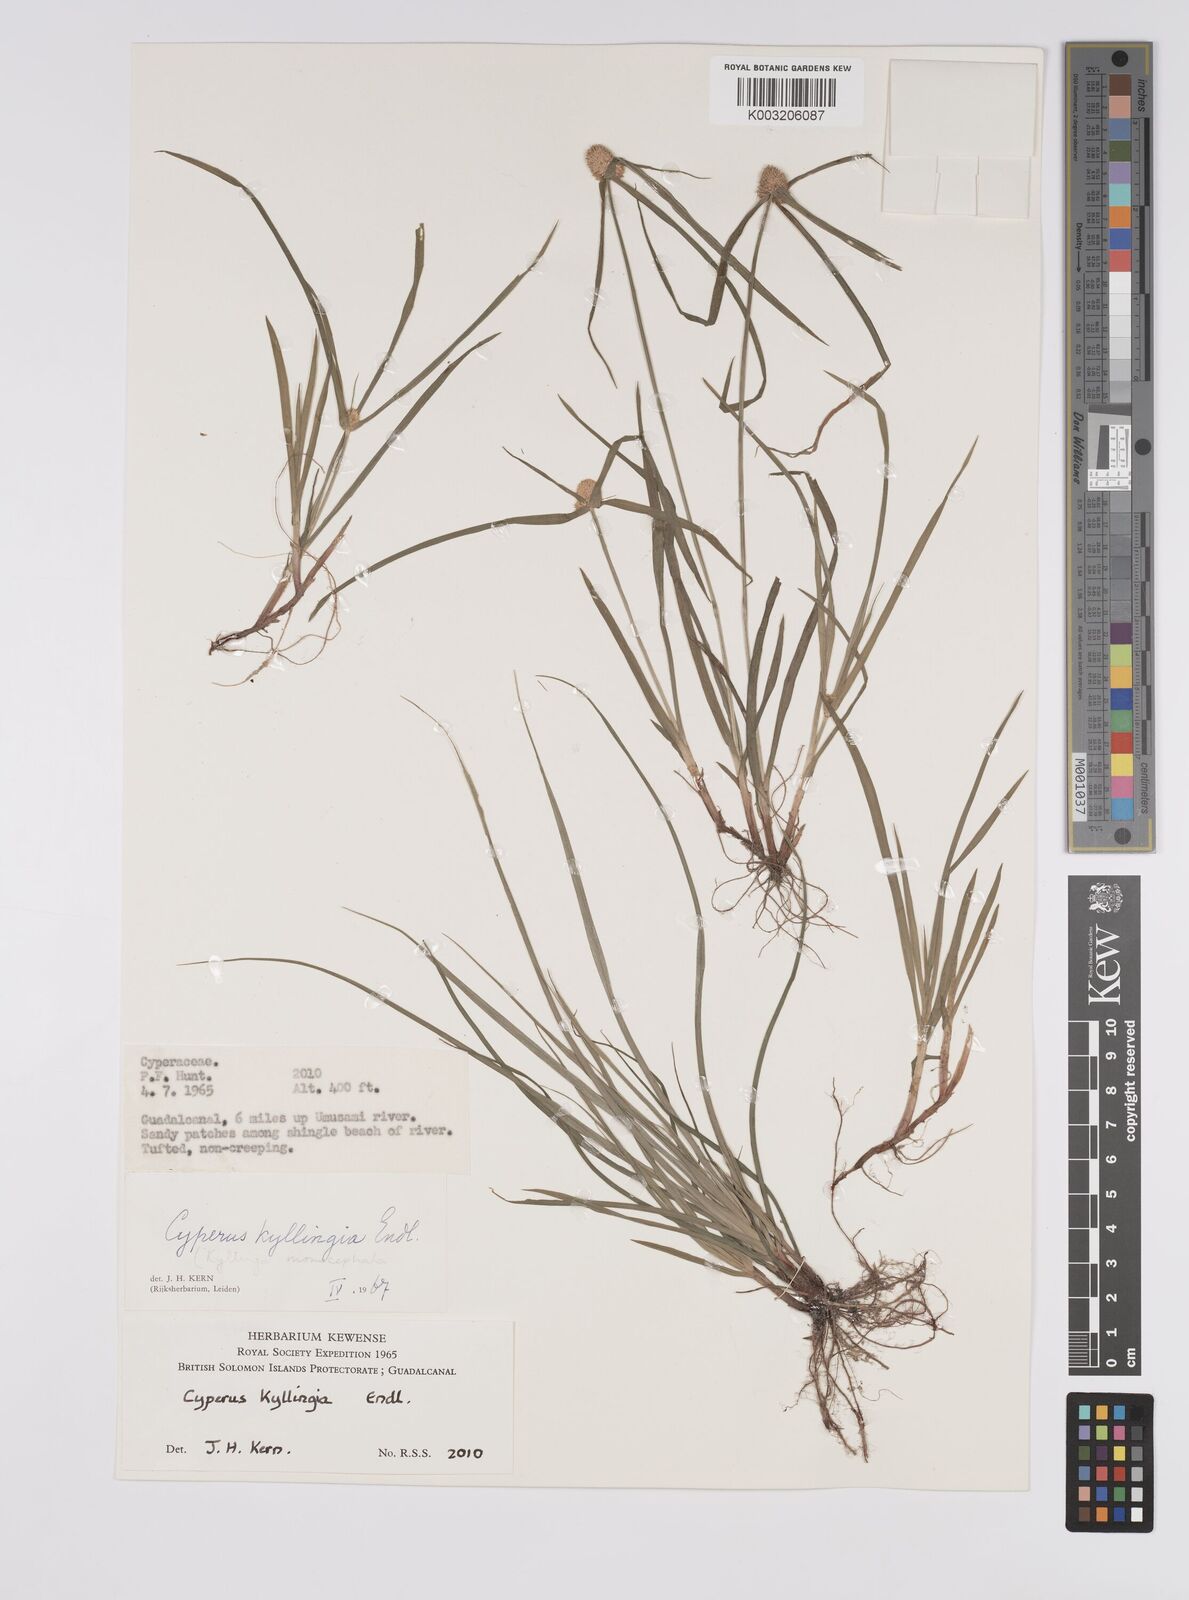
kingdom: Plantae
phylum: Tracheophyta
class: Liliopsida
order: Poales
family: Cyperaceae
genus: Cyperus
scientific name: Cyperus nemoralis
